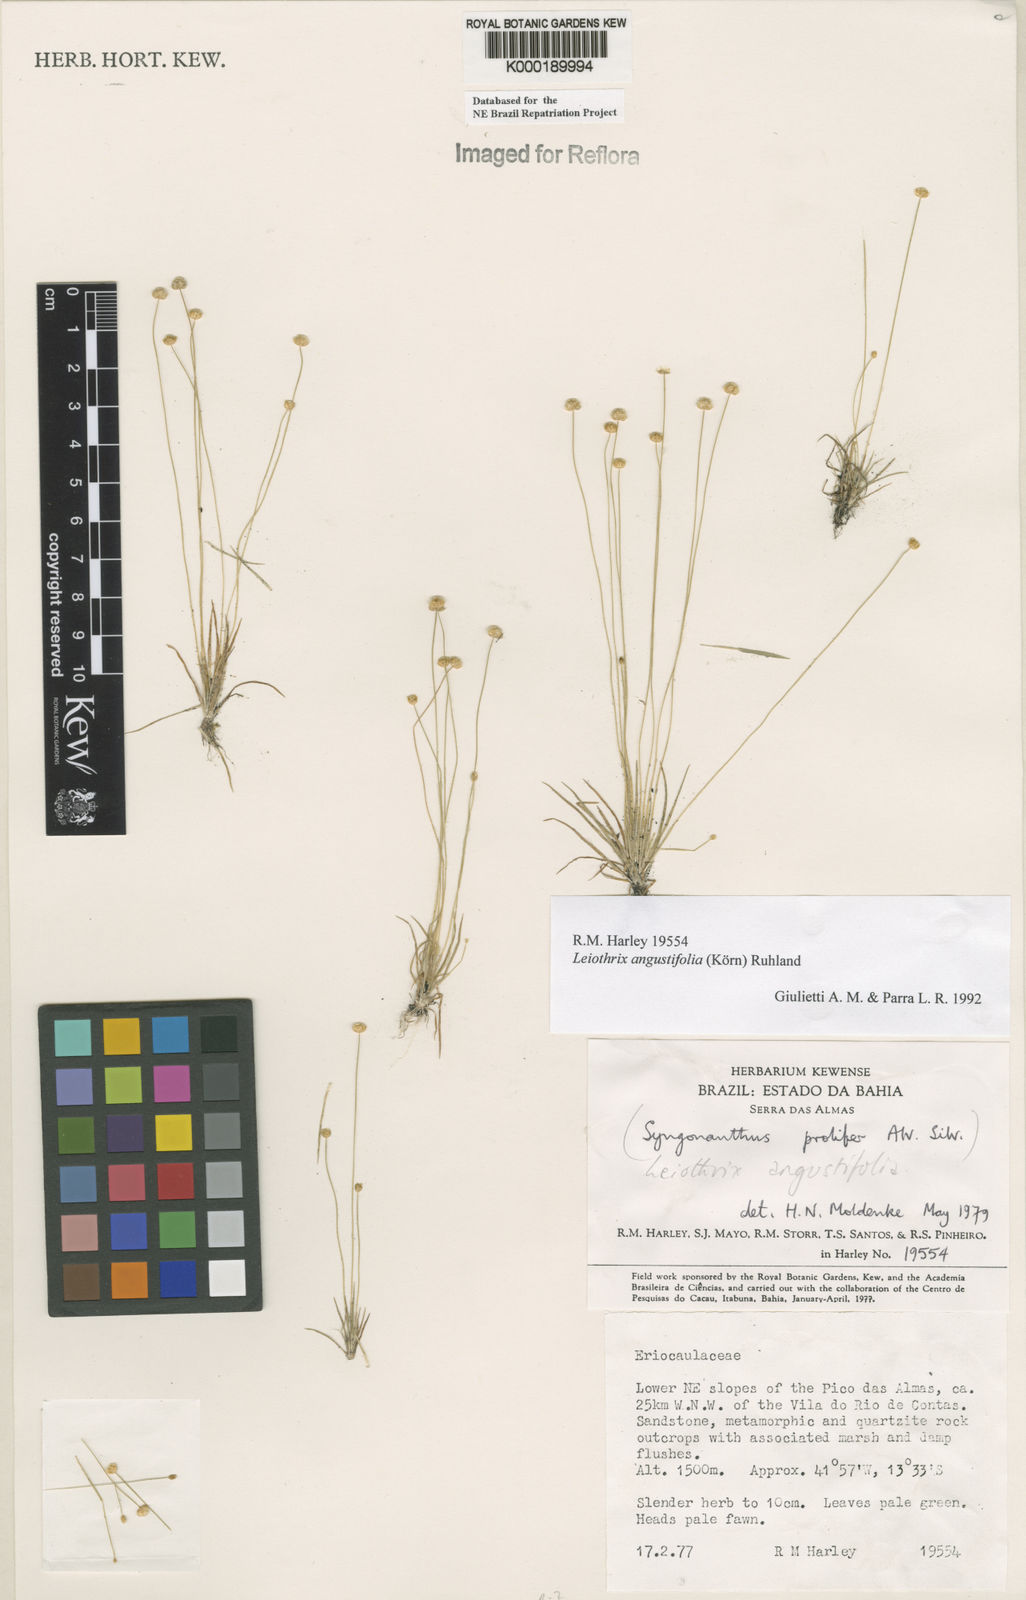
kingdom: Plantae
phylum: Tracheophyta
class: Liliopsida
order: Poales
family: Eriocaulaceae
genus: Leiothrix
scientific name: Leiothrix angustifolia
